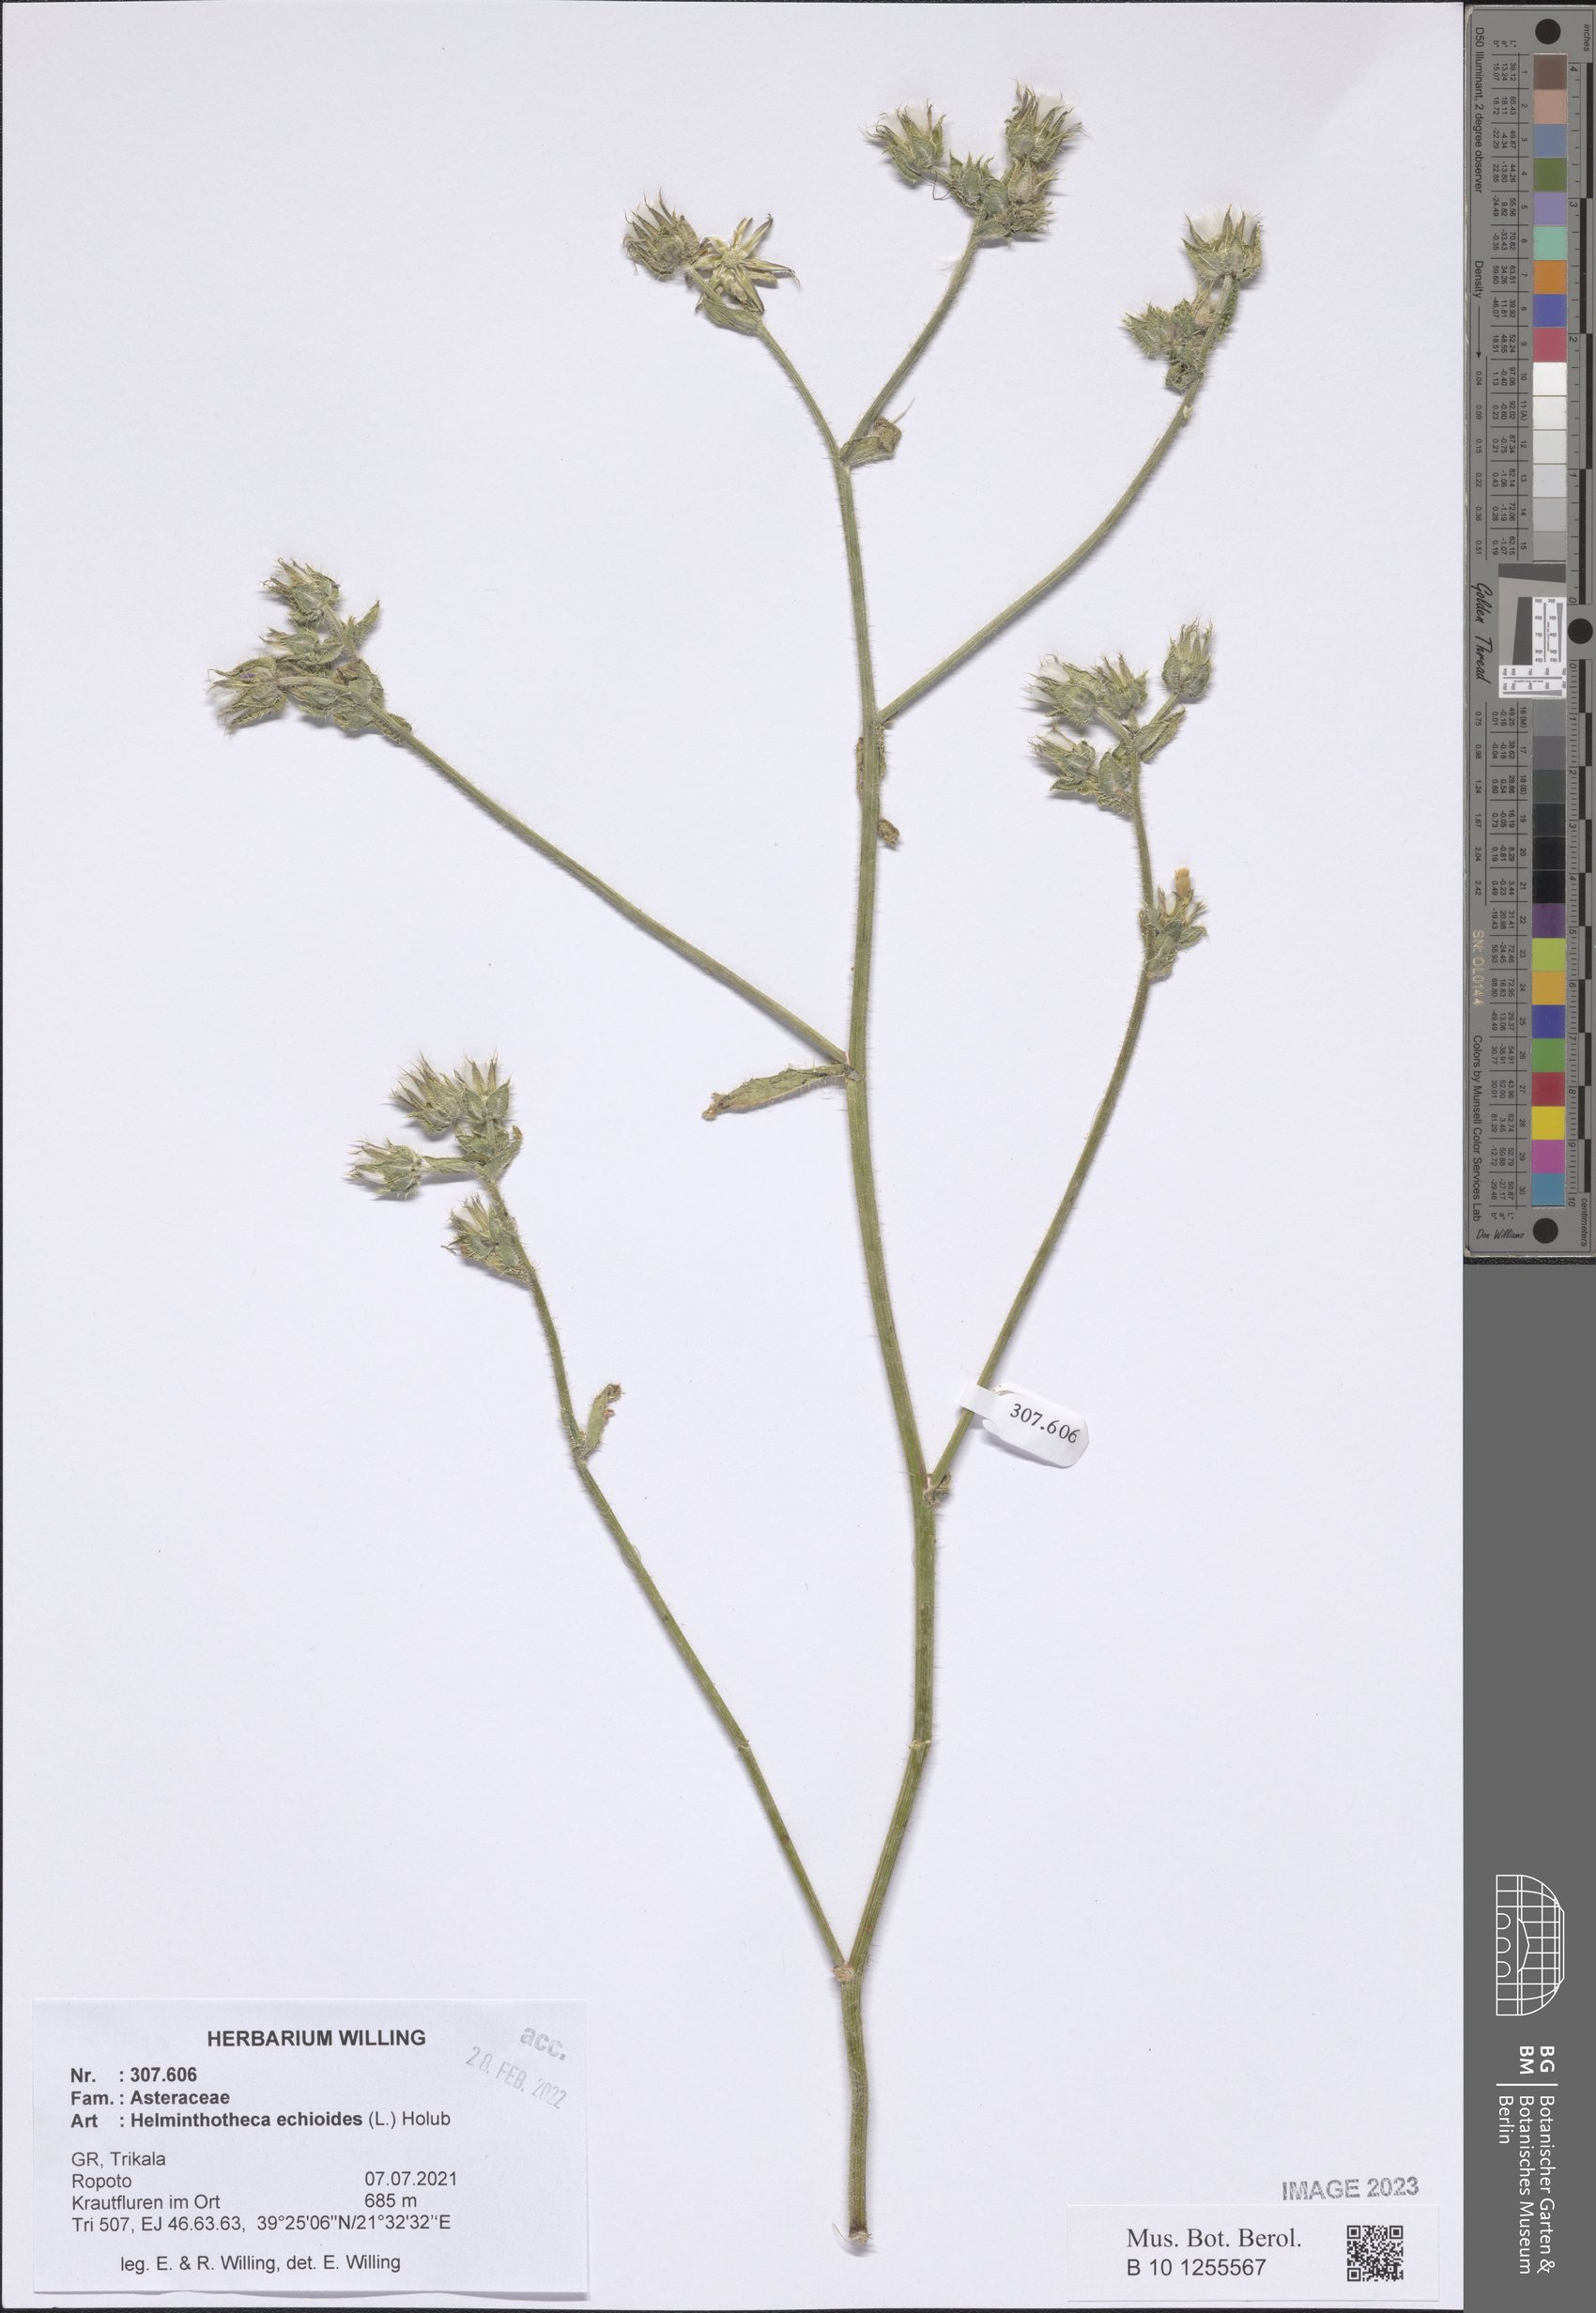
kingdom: Plantae
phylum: Tracheophyta
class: Magnoliopsida
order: Asterales
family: Asteraceae
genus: Helminthotheca
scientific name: Helminthotheca echioides
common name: Ox-tongue
